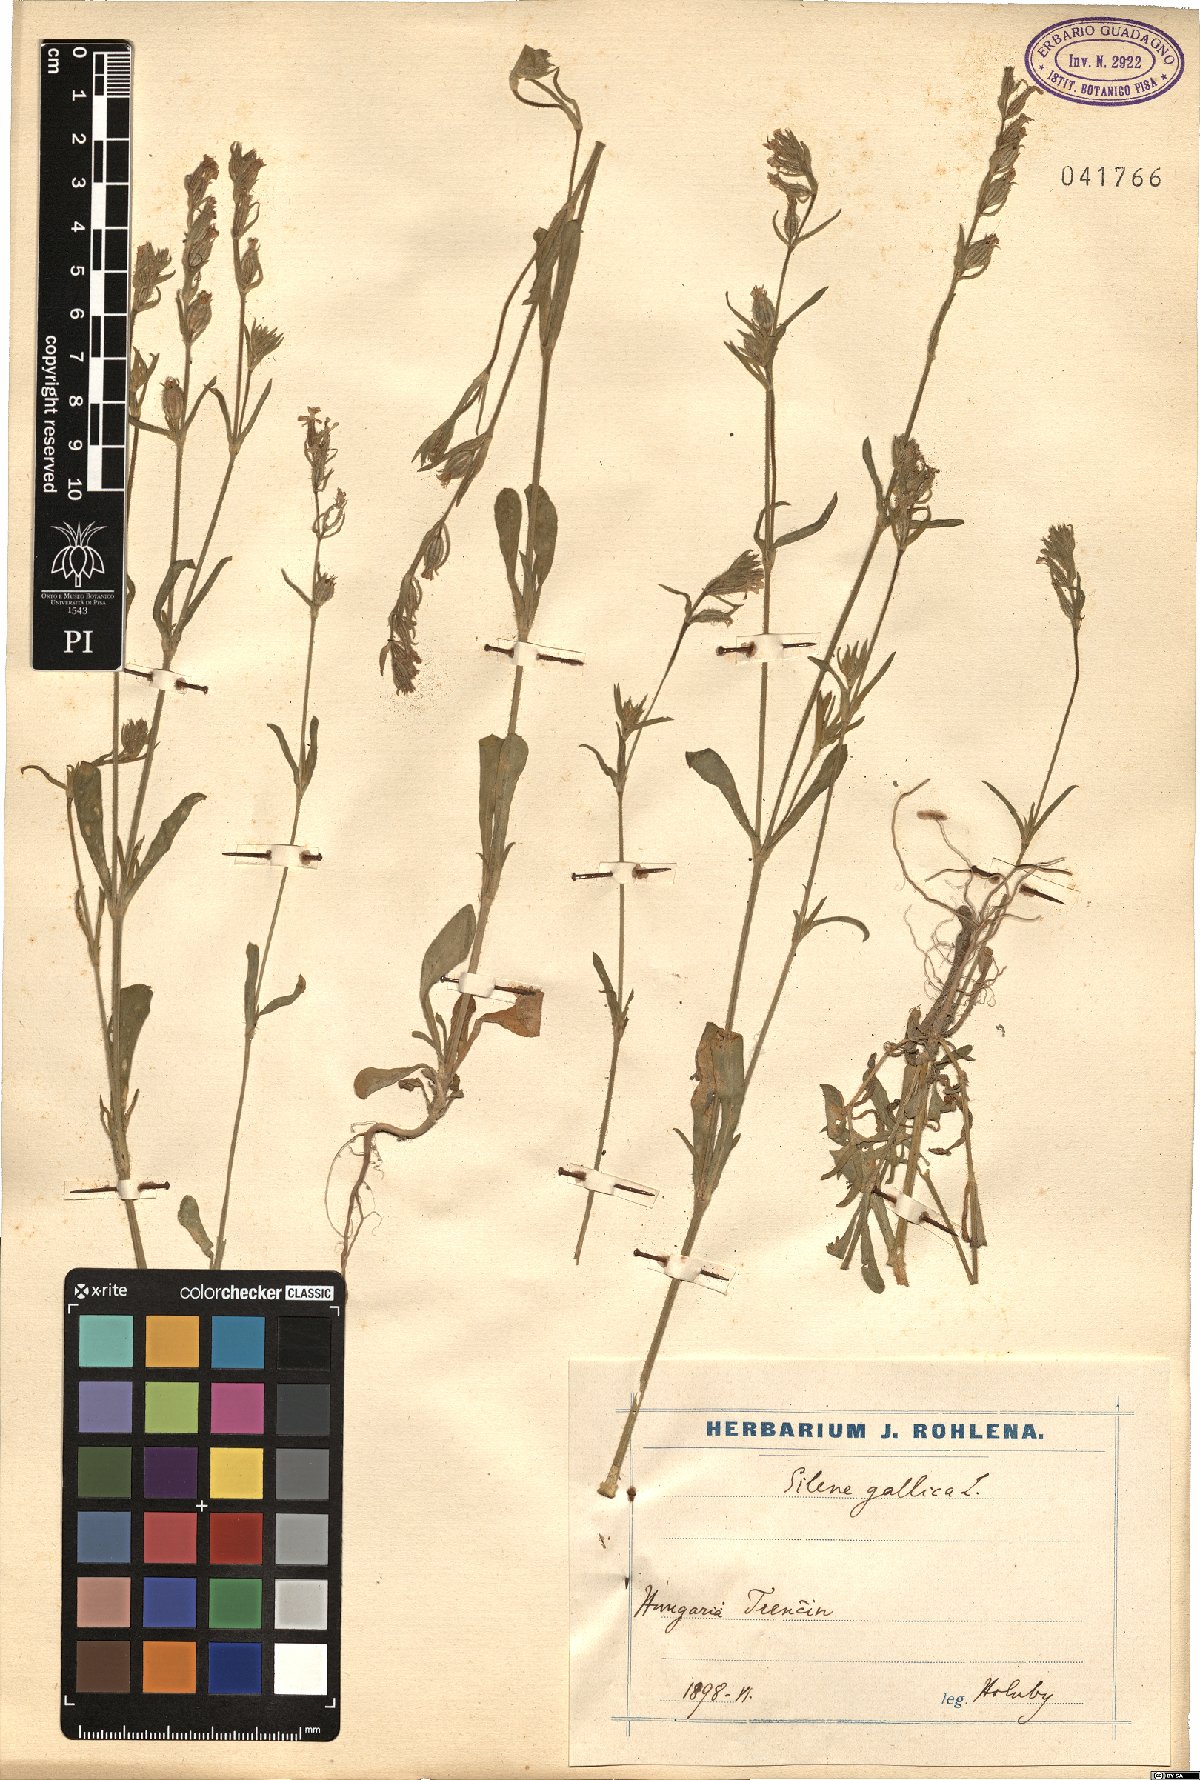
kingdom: Plantae
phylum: Tracheophyta
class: Magnoliopsida
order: Caryophyllales
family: Caryophyllaceae
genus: Silene
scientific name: Silene gallica
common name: Small-flowered catchfly
